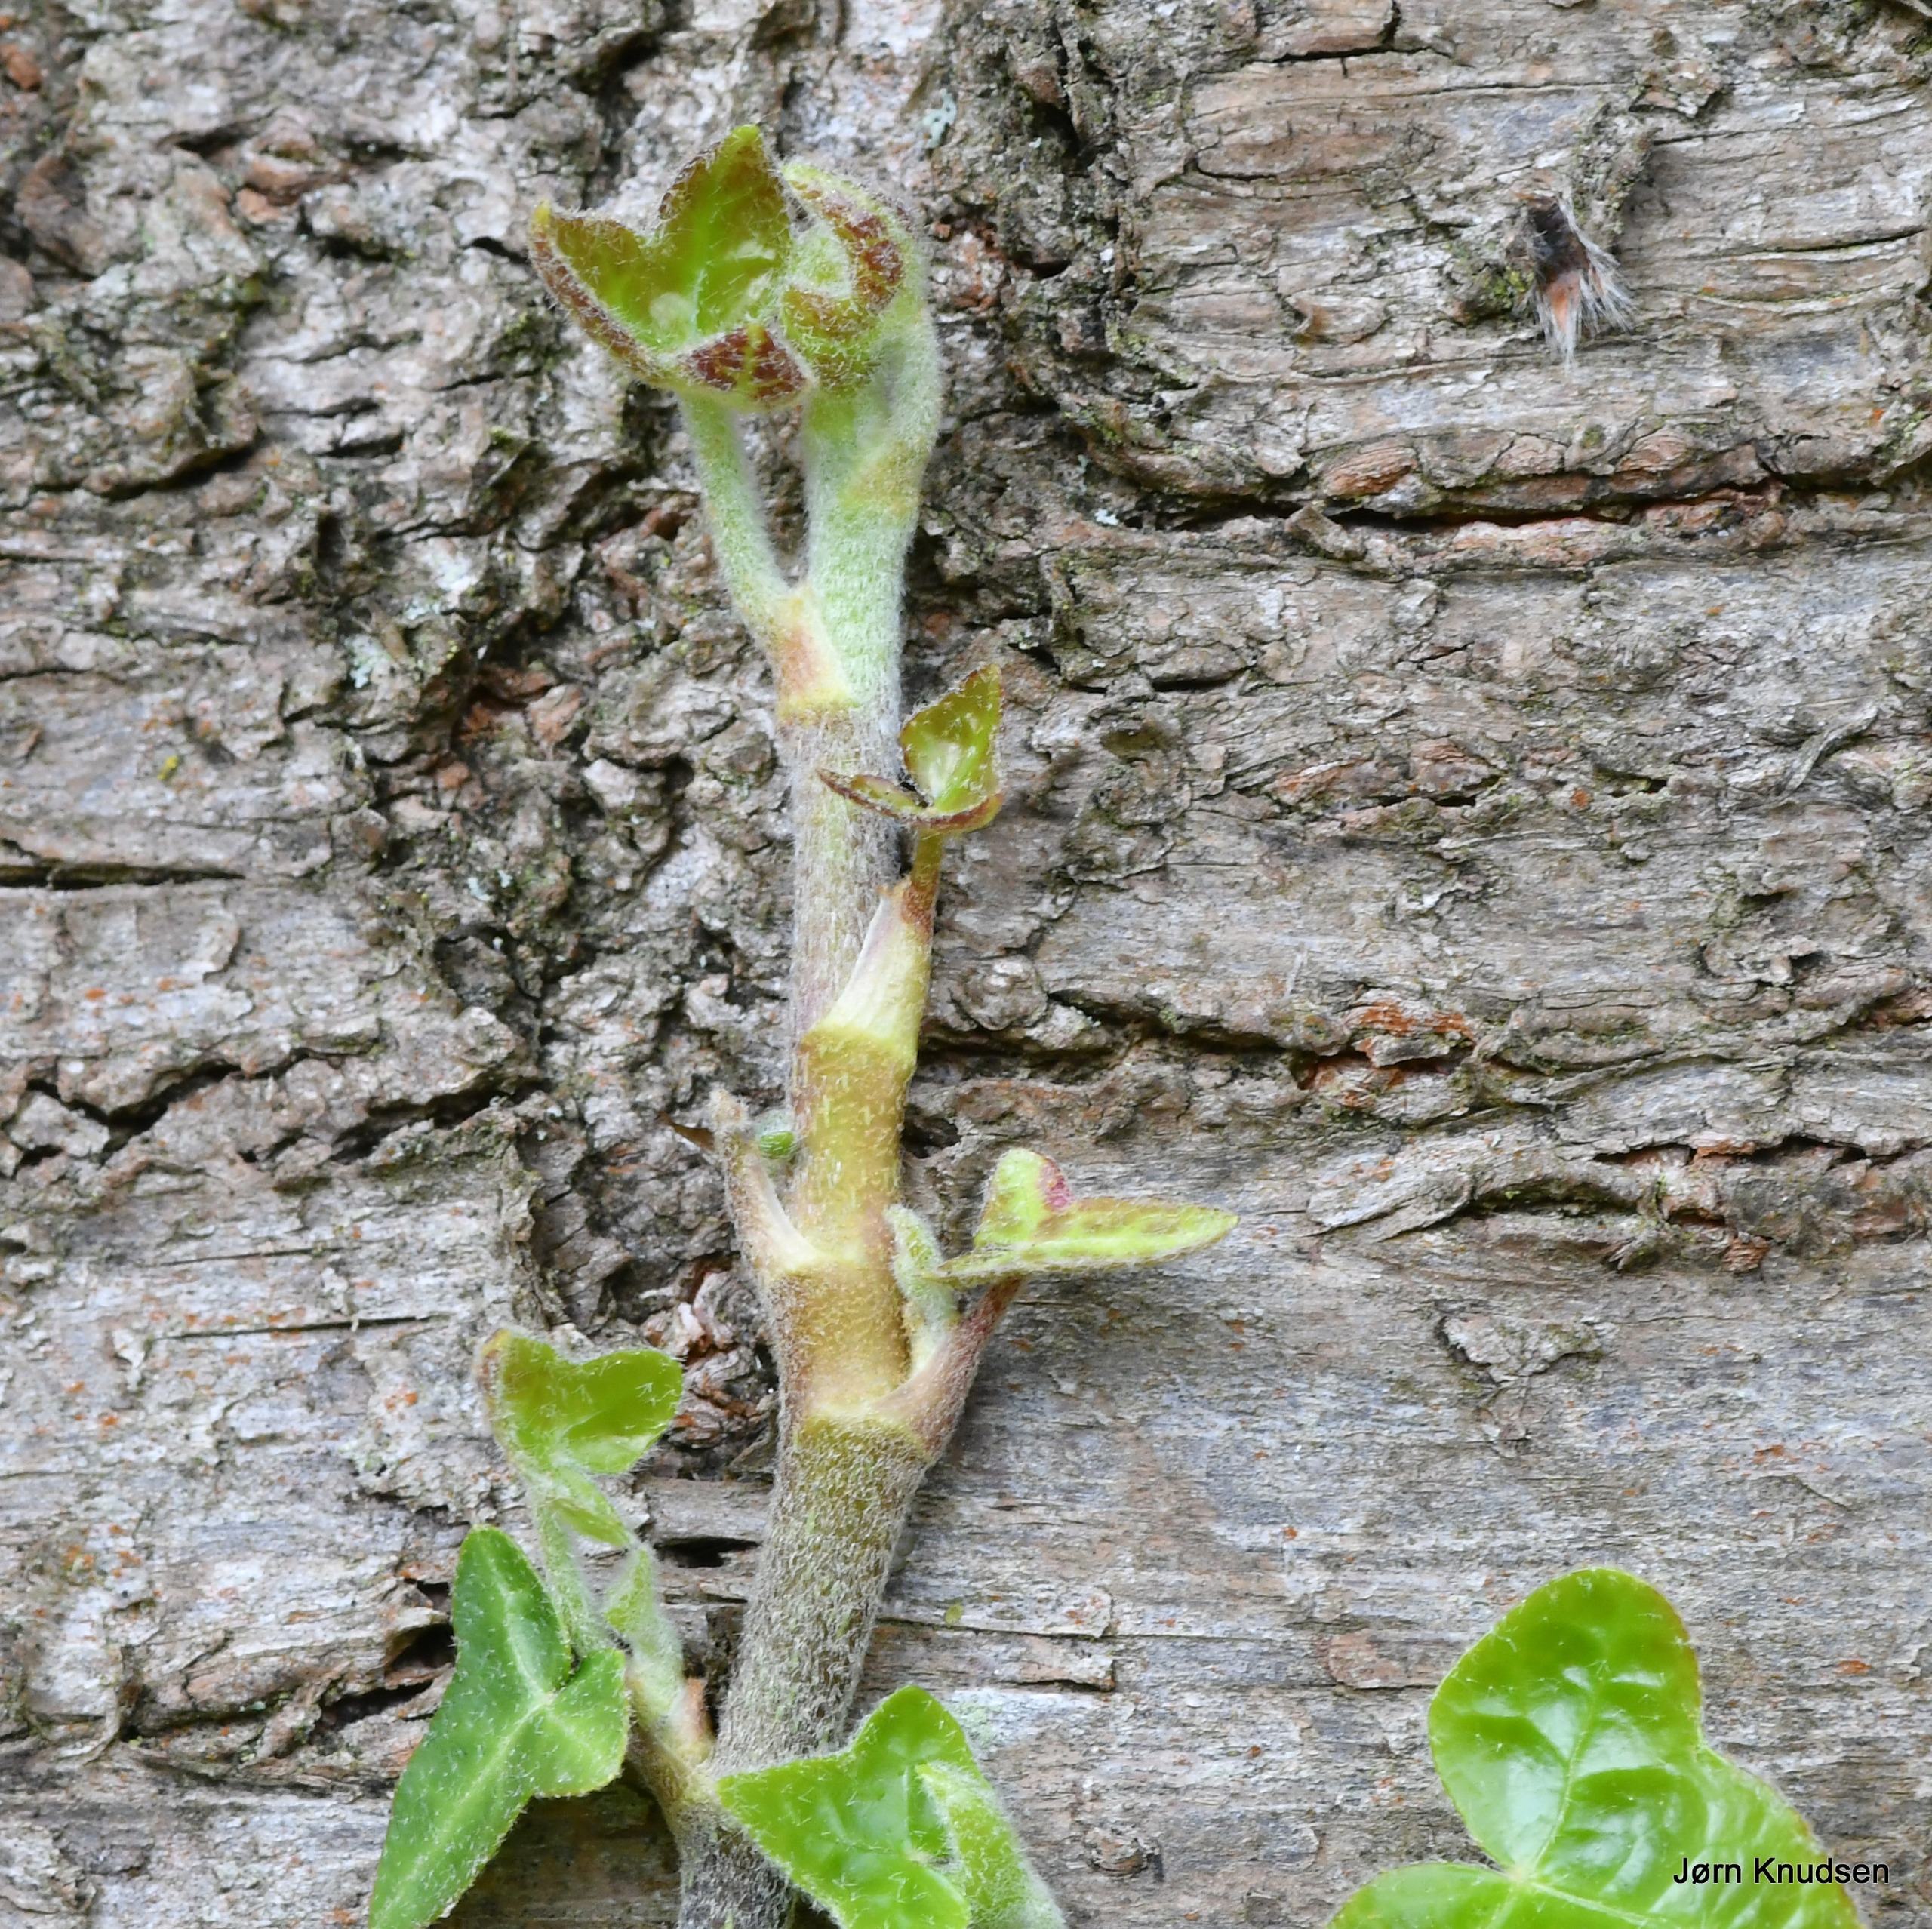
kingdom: Plantae
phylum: Tracheophyta
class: Magnoliopsida
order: Apiales
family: Araliaceae
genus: Hedera
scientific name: Hedera helix
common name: Vedbend
